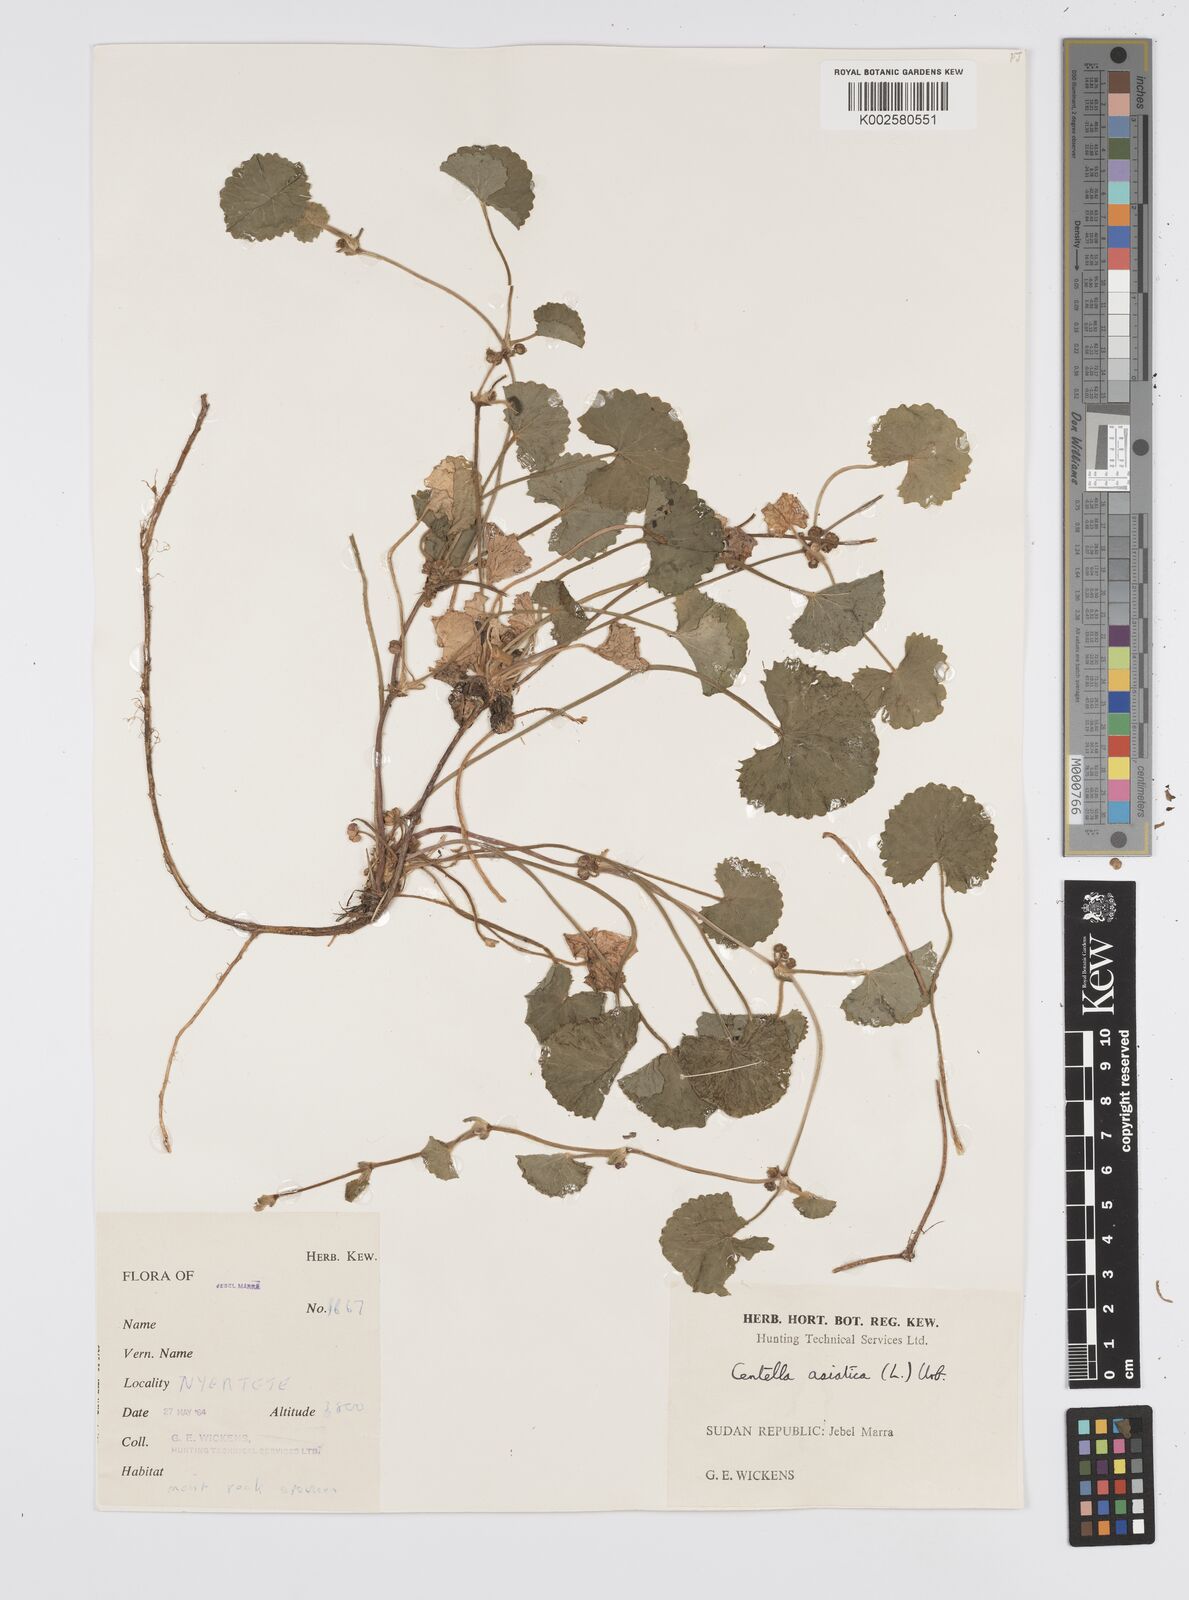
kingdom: Plantae
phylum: Tracheophyta
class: Magnoliopsida
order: Apiales
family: Apiaceae
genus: Centella
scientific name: Centella asiatica
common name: Spadeleaf
